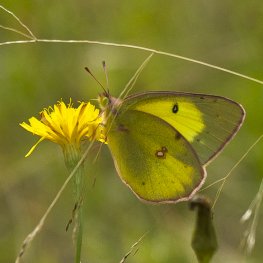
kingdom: Animalia
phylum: Arthropoda
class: Insecta
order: Lepidoptera
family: Pieridae
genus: Colias
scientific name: Colias philodice
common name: Clouded Sulphur
